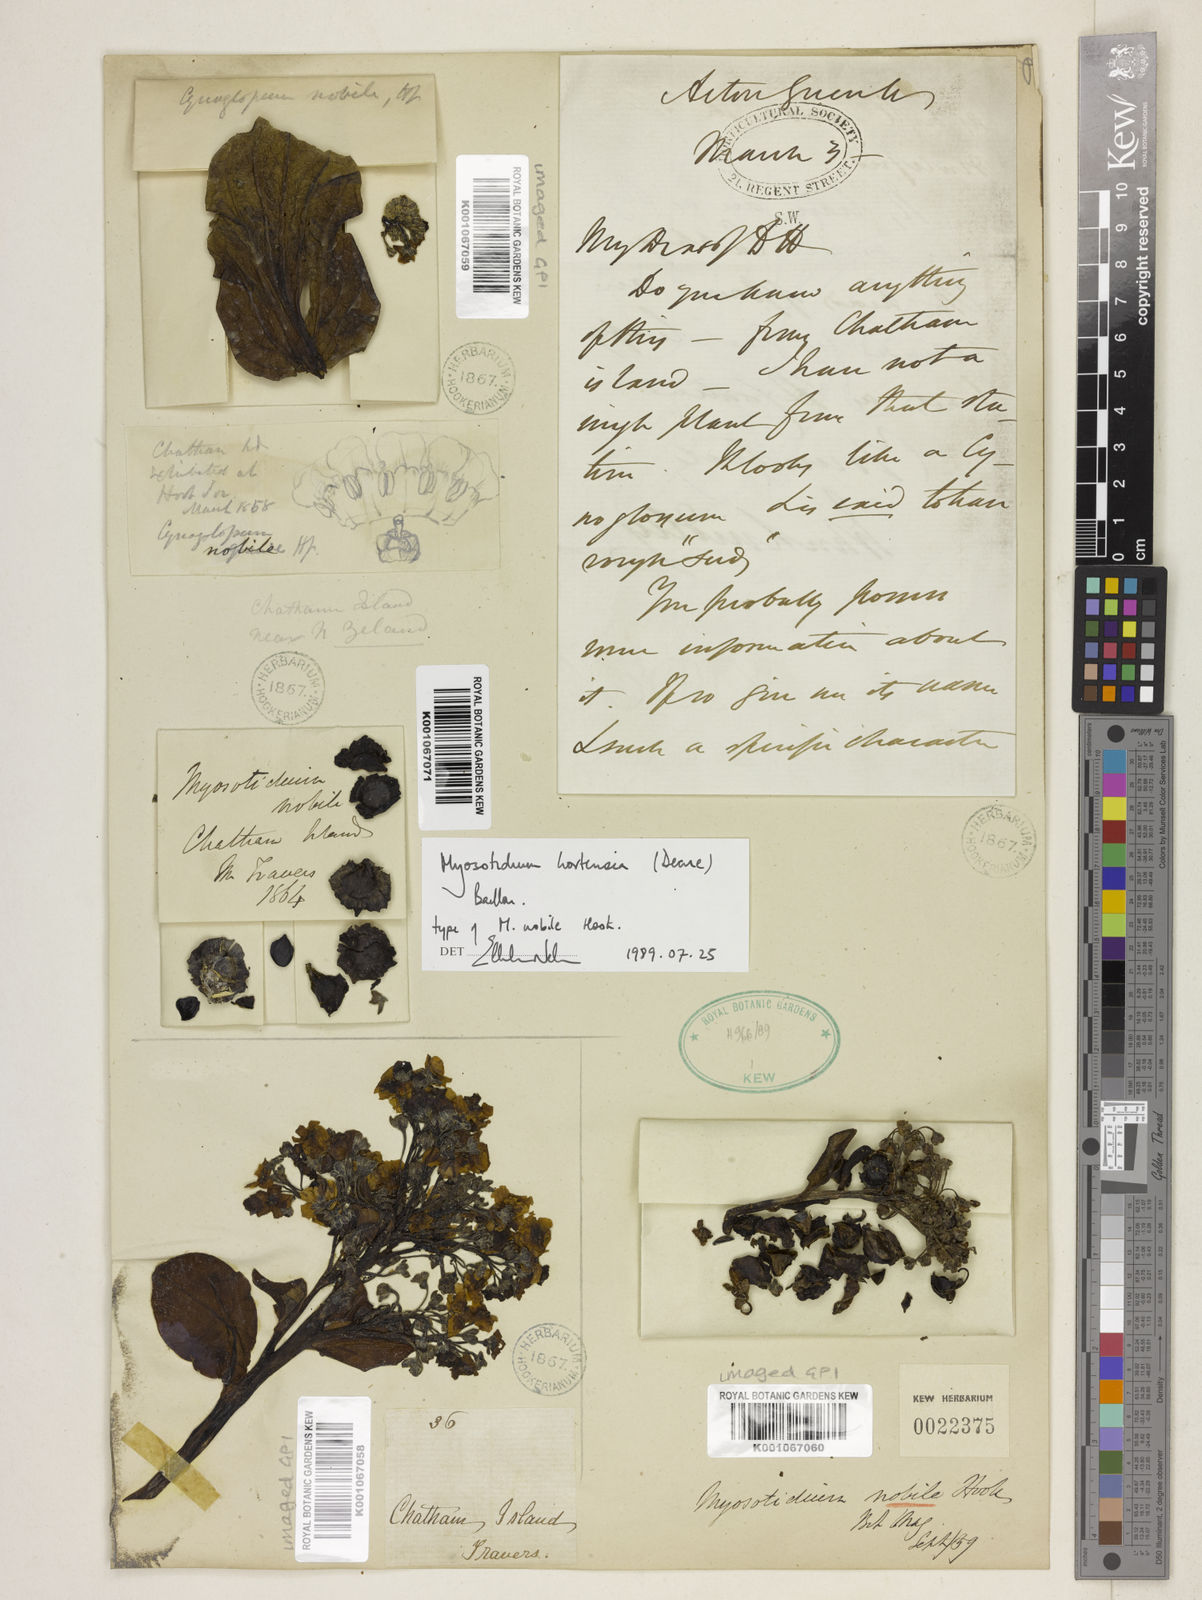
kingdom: Plantae
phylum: Tracheophyta
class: Magnoliopsida
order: Boraginales
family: Boraginaceae
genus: Myosotidium
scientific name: Myosotidium hortensia
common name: Giant forget-me-not
